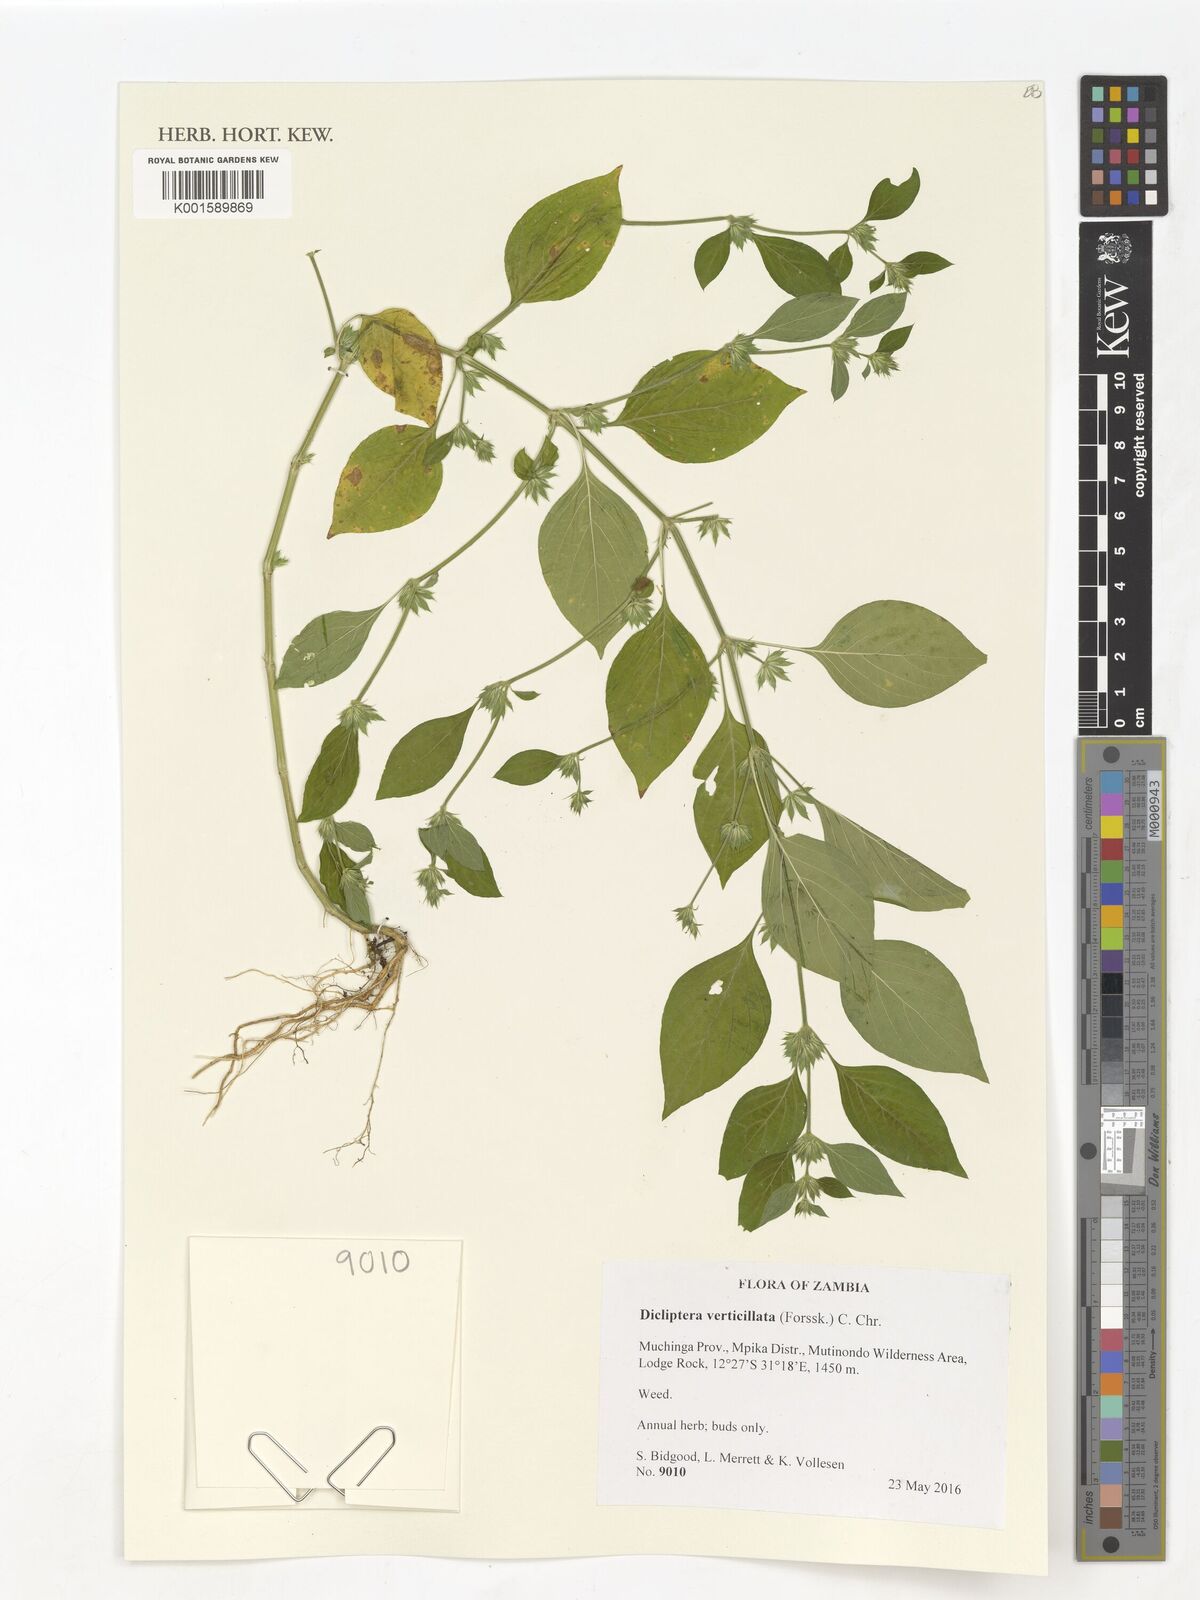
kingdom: Plantae
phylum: Tracheophyta
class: Magnoliopsida
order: Lamiales
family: Acanthaceae
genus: Dicliptera
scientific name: Dicliptera verticillata
